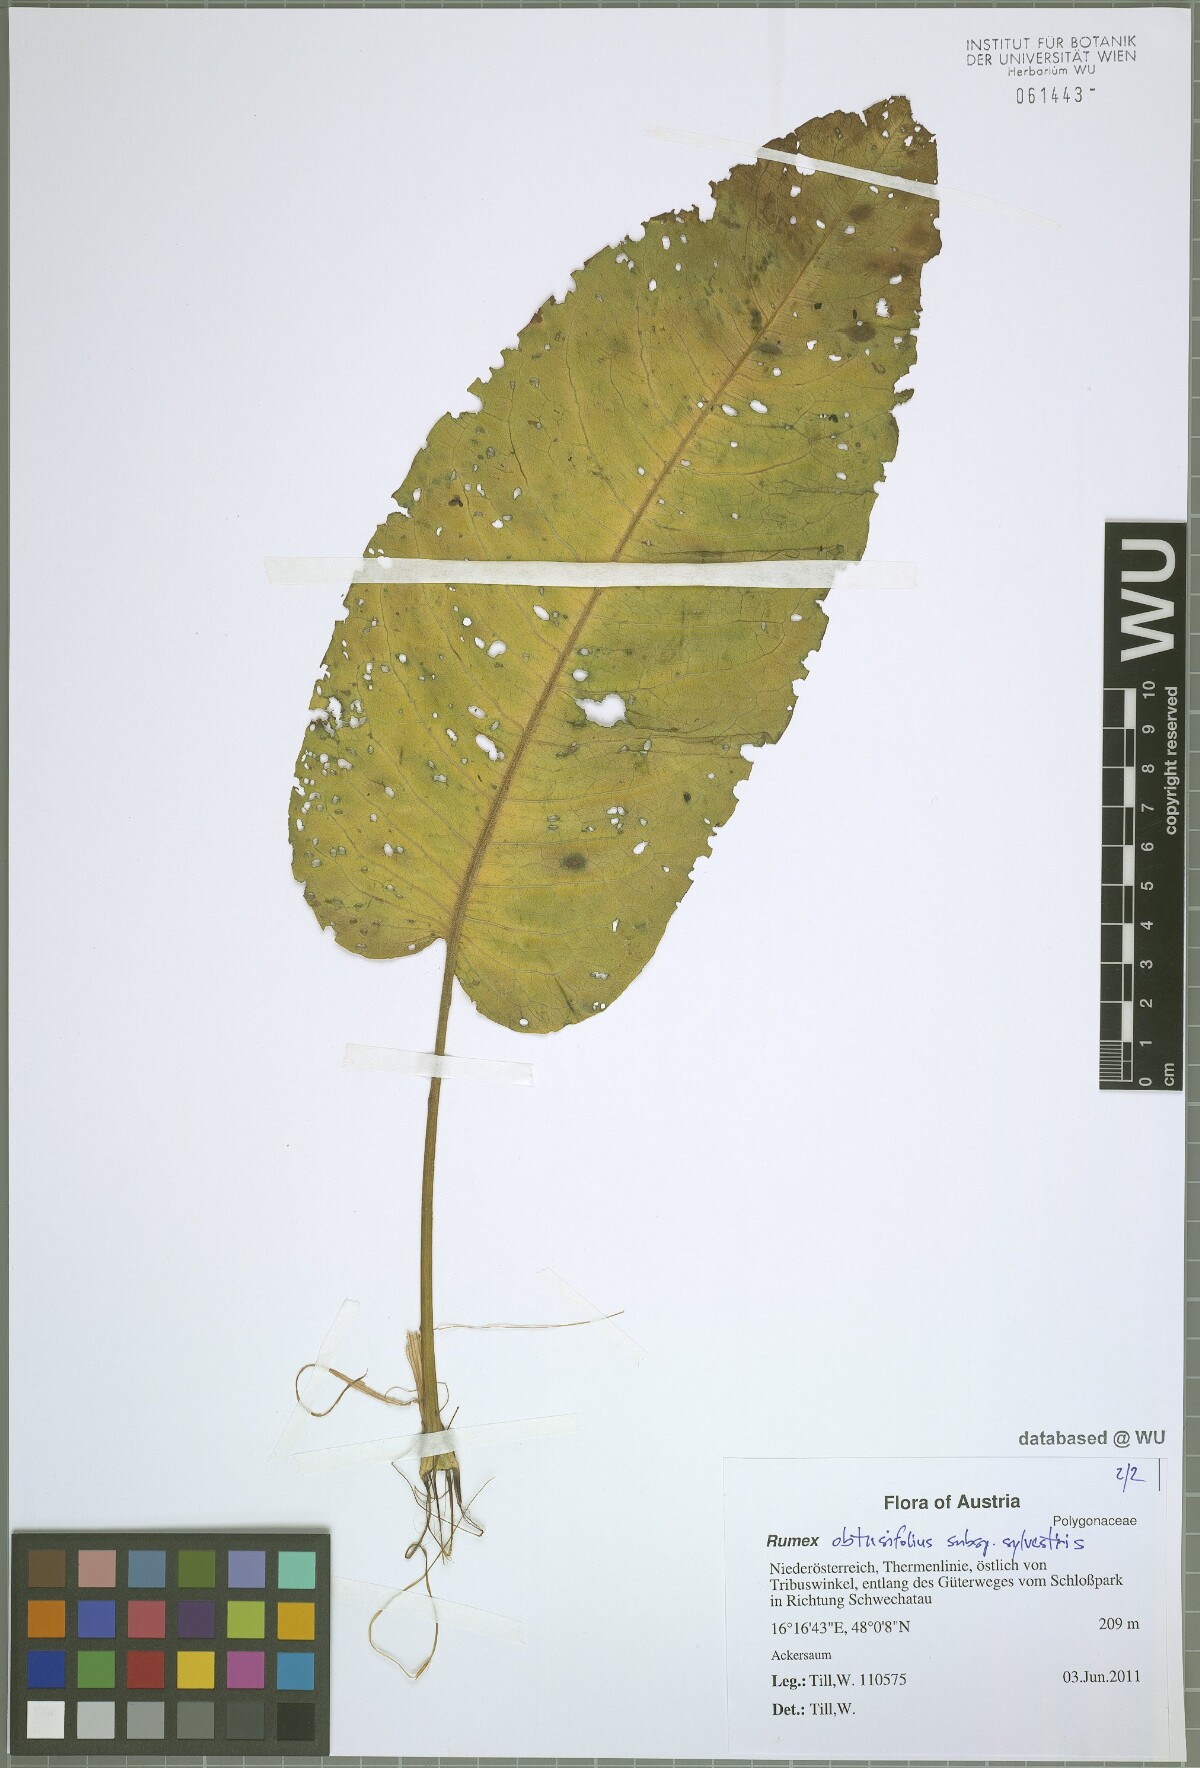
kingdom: Plantae
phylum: Tracheophyta
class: Magnoliopsida
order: Caryophyllales
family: Polygonaceae
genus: Rumex
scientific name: Rumex obtusifolius
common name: Bitter dock
